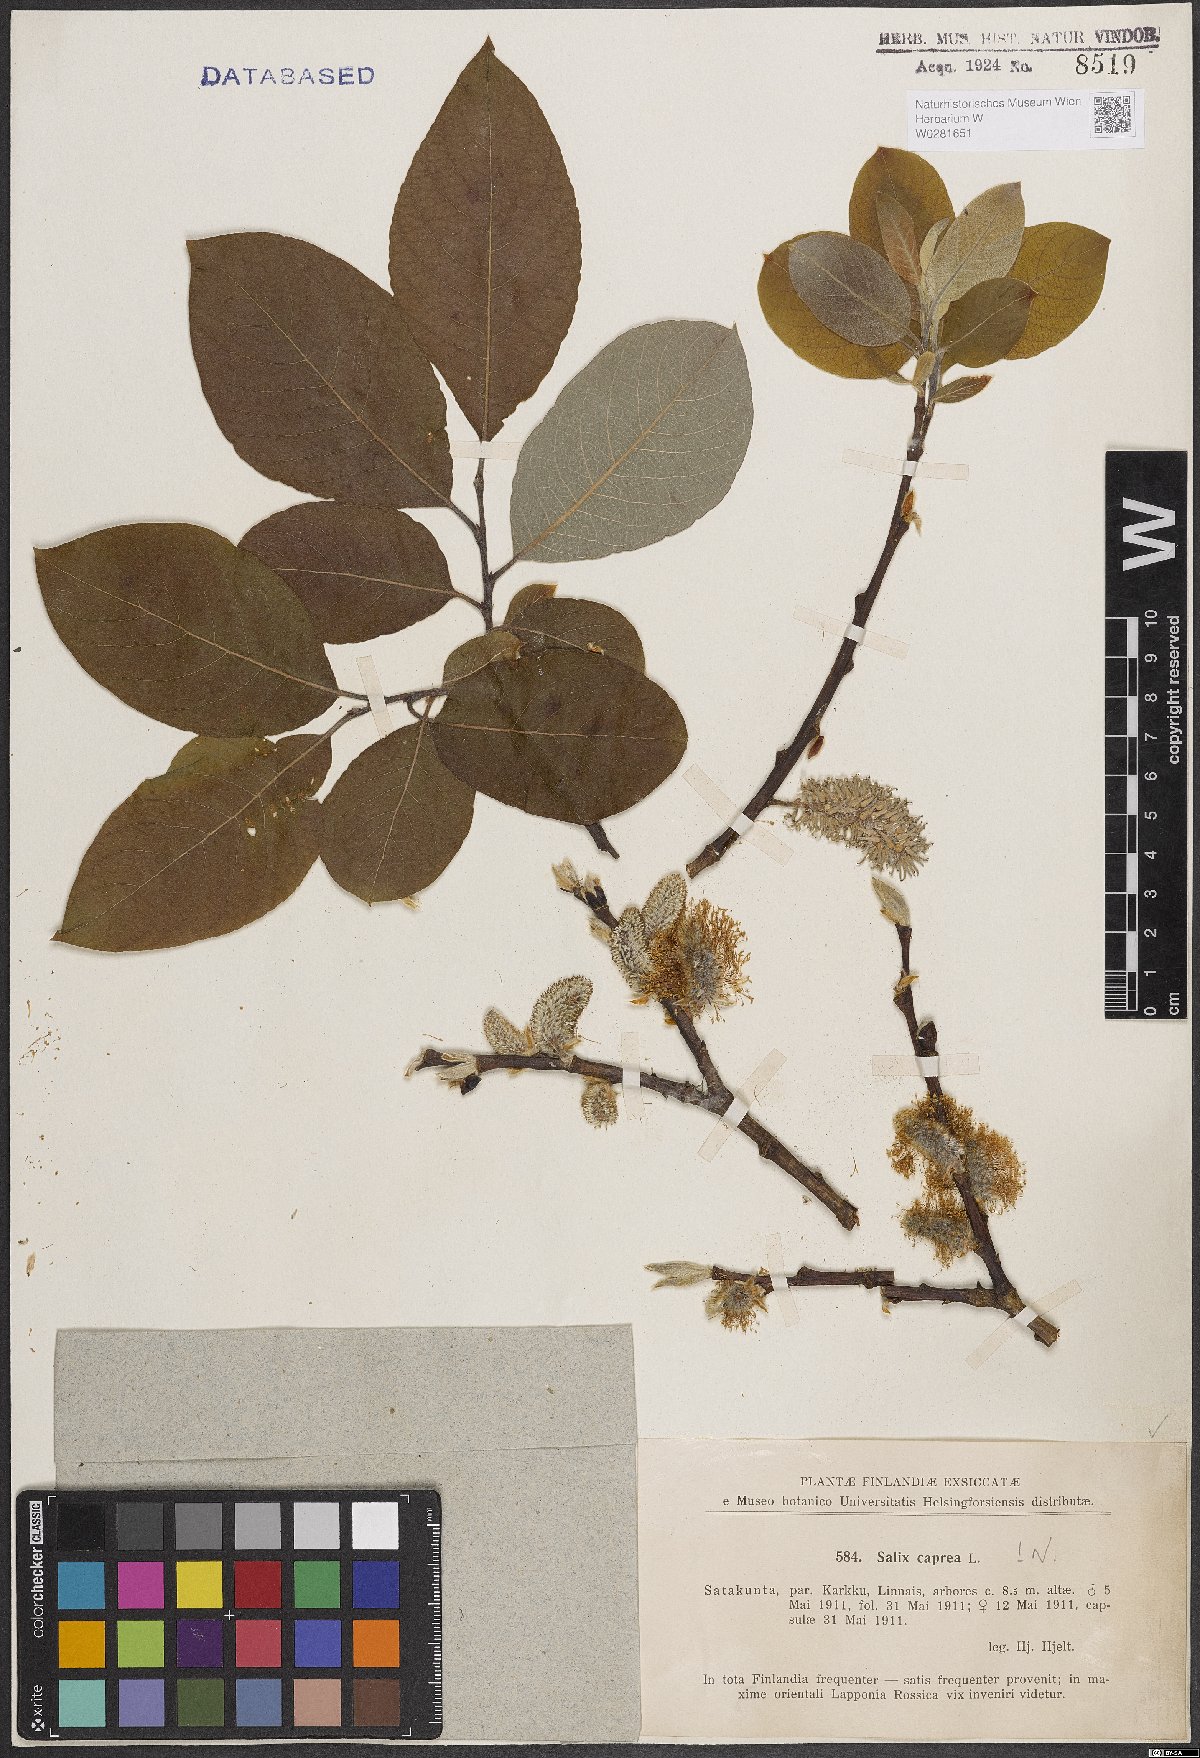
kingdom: Plantae
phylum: Tracheophyta
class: Magnoliopsida
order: Malpighiales
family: Salicaceae
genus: Salix
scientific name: Salix caprea
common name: Goat willow
